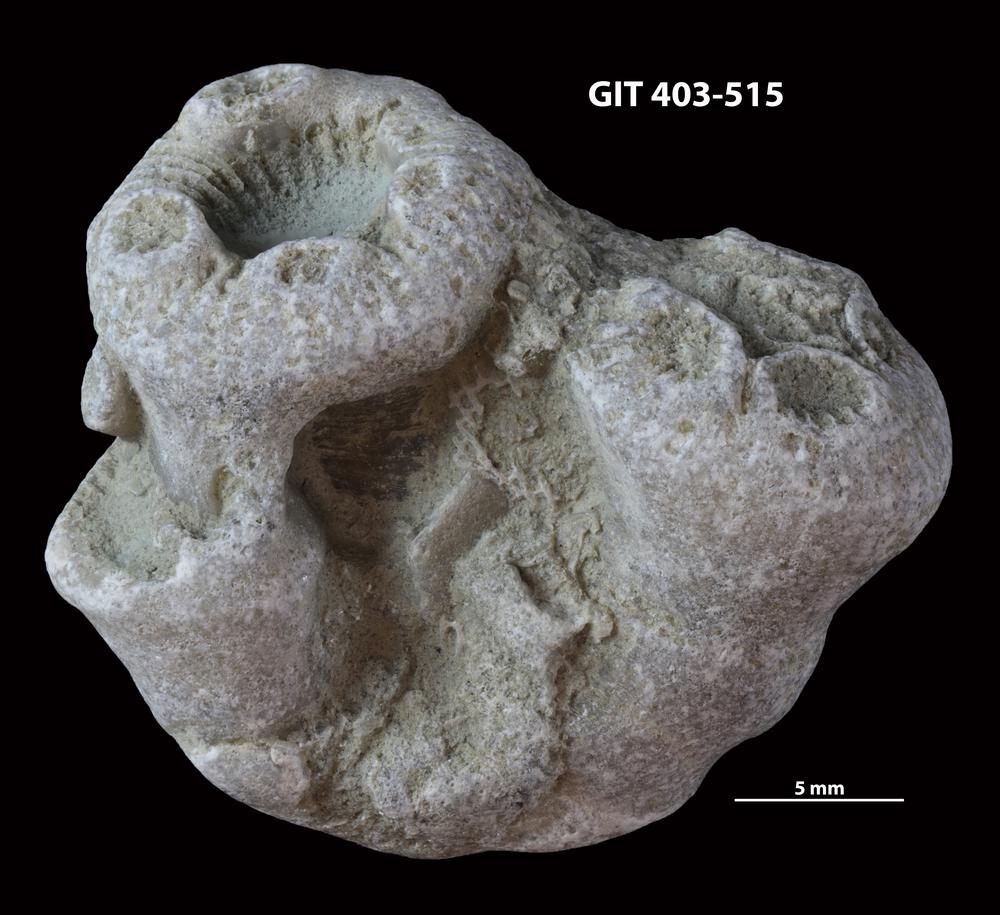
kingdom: Animalia
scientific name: Animalia
